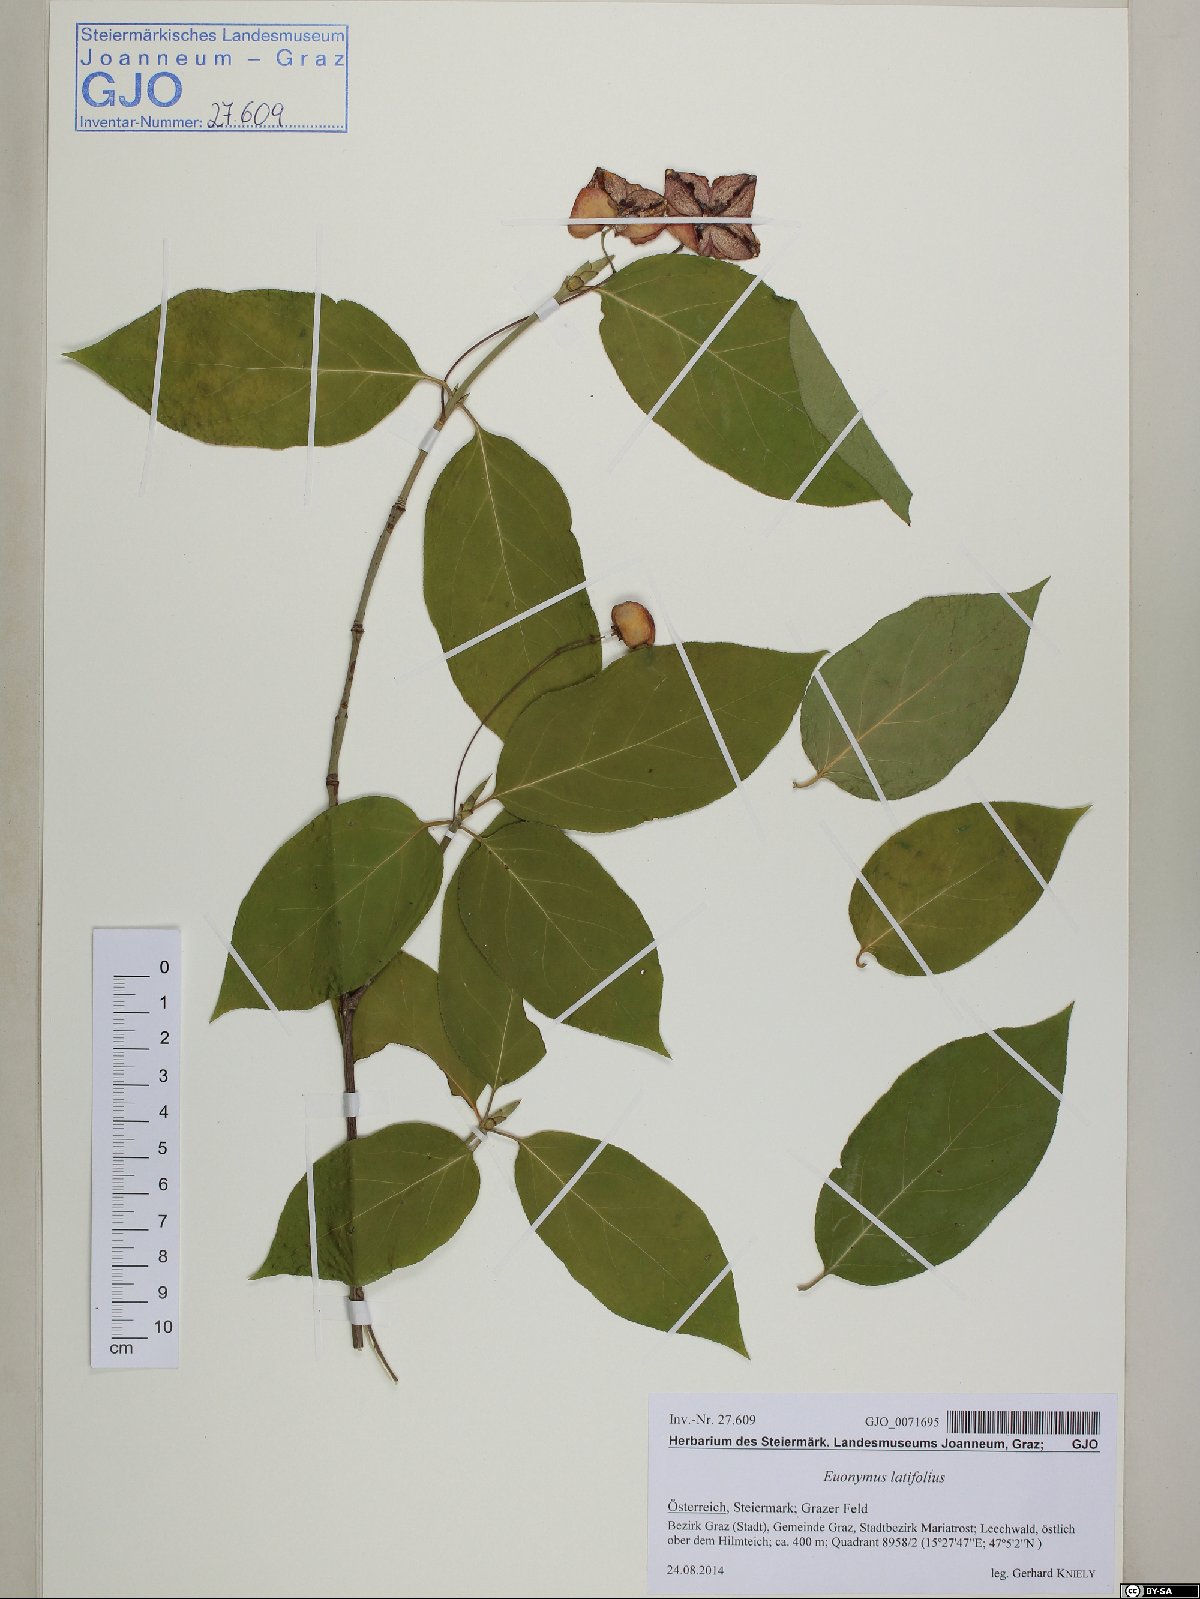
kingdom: Plantae
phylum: Tracheophyta
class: Magnoliopsida
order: Celastrales
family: Celastraceae
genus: Euonymus
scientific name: Euonymus latifolius
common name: Large-leaved spindle
